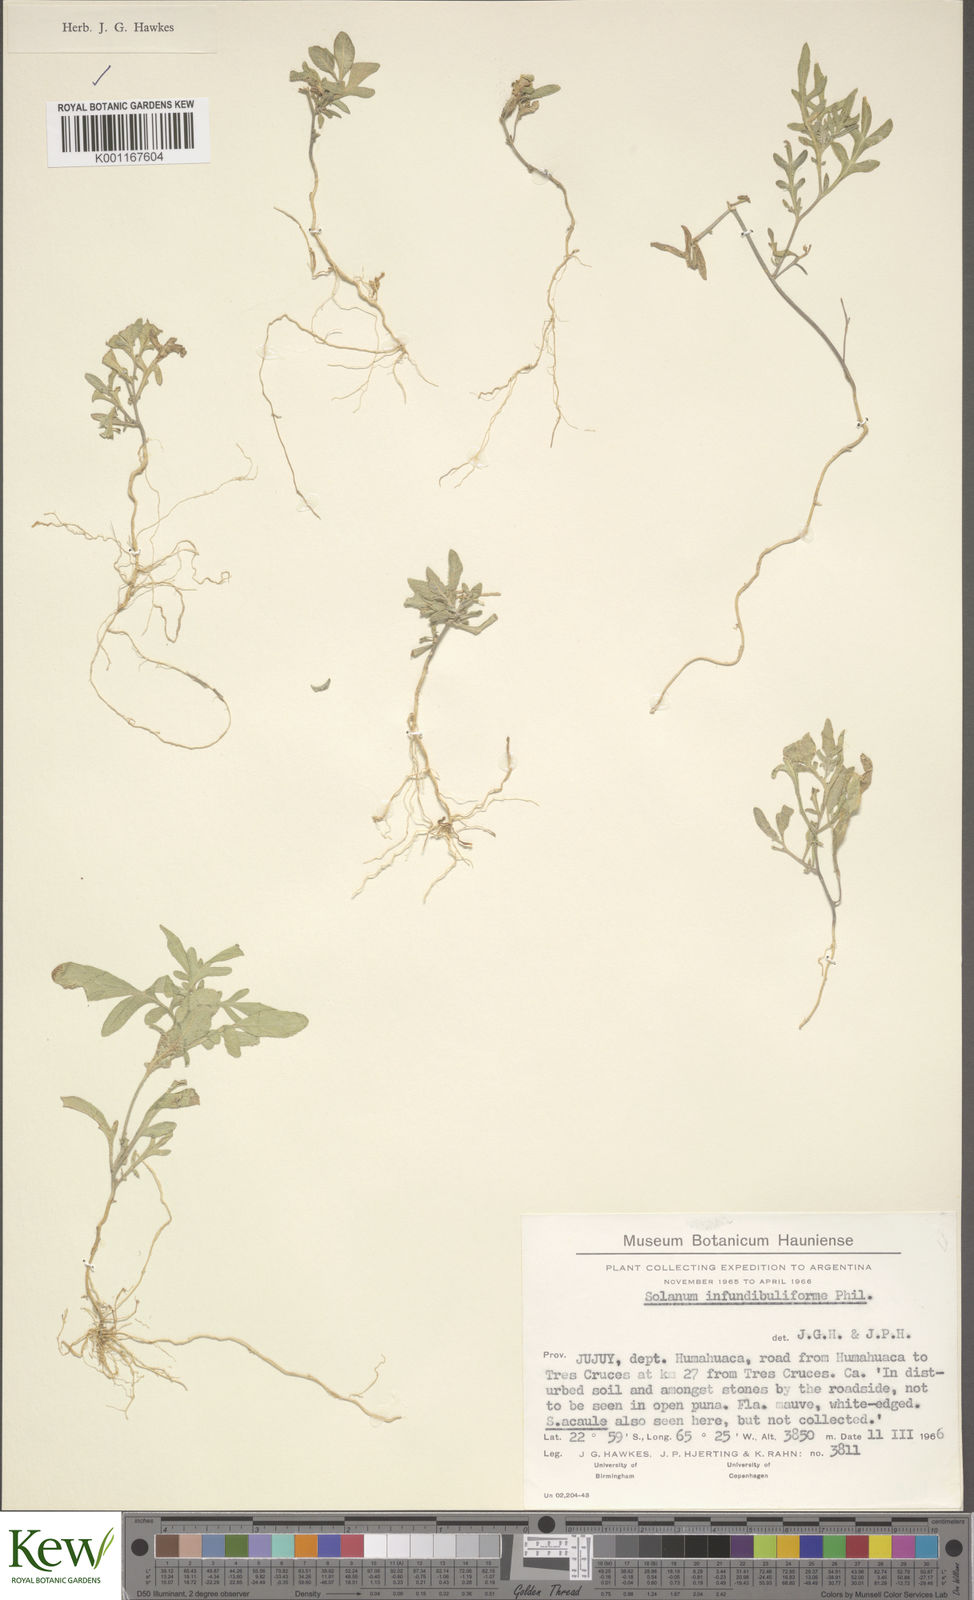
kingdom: Plantae
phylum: Tracheophyta
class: Magnoliopsida
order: Solanales
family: Solanaceae
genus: Solanum
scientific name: Solanum infundibuliforme
